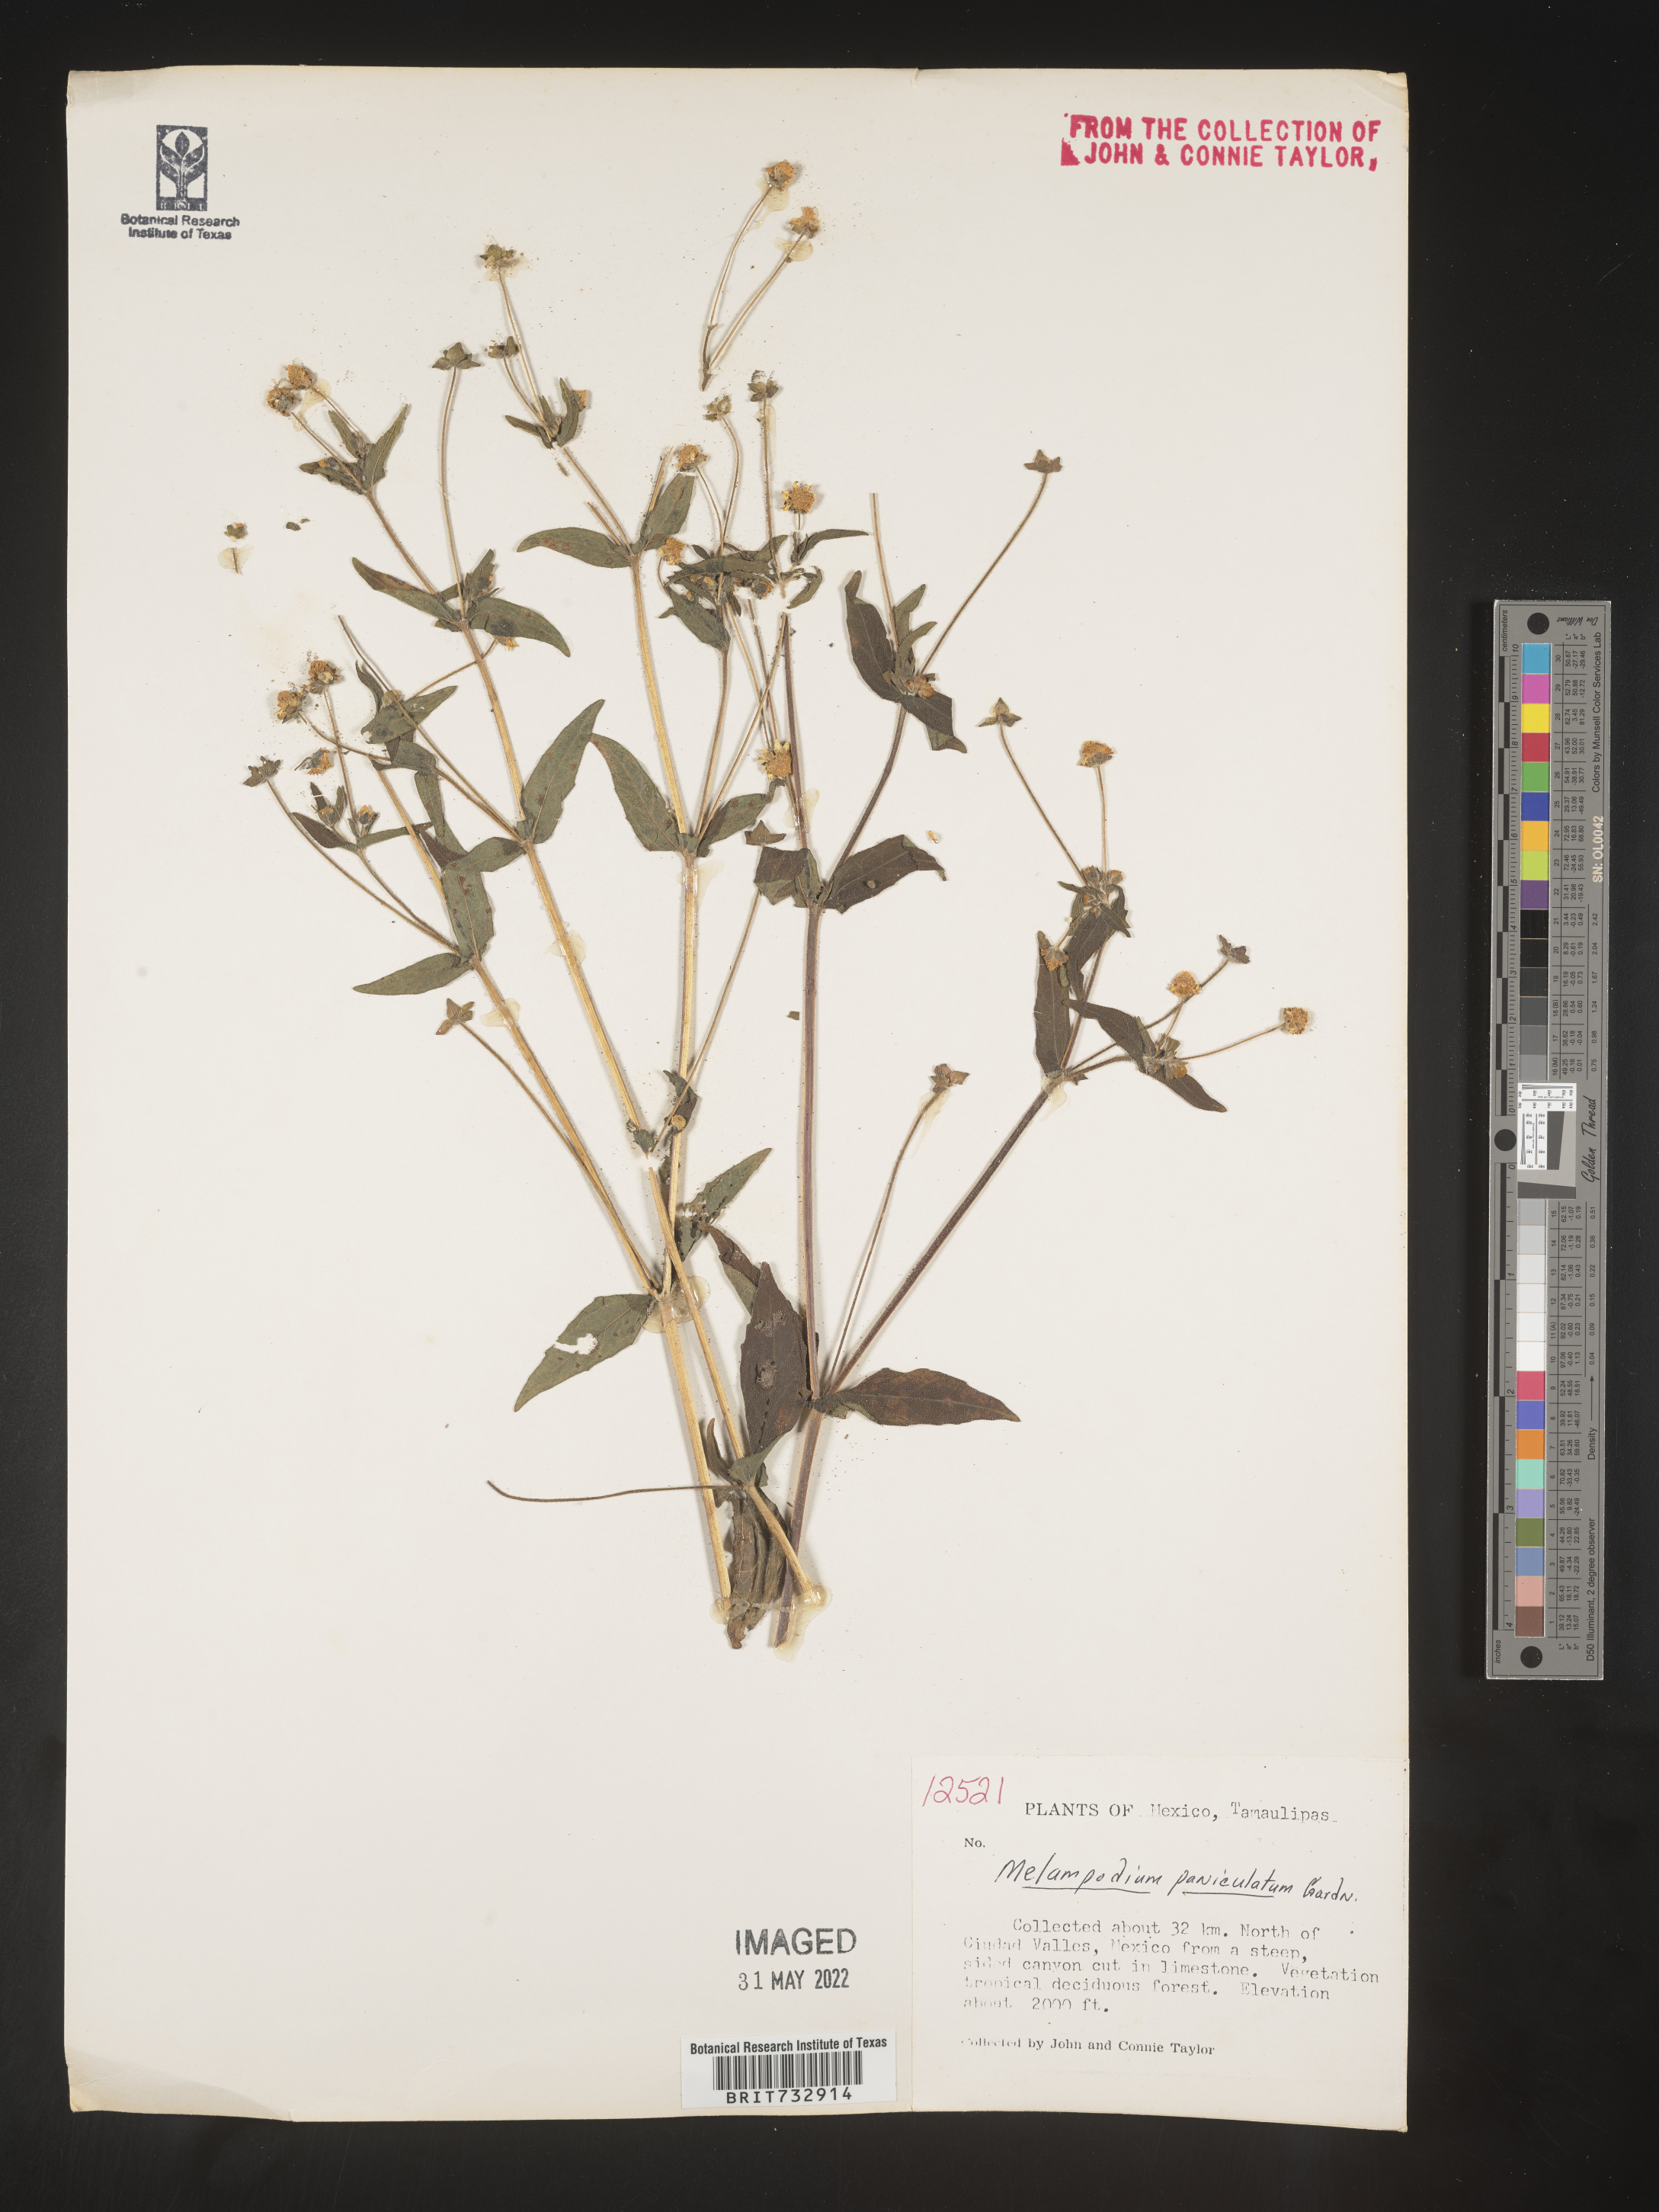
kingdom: Plantae
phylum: Tracheophyta
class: Magnoliopsida
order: Asterales
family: Asteraceae
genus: Melampodium
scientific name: Melampodium
